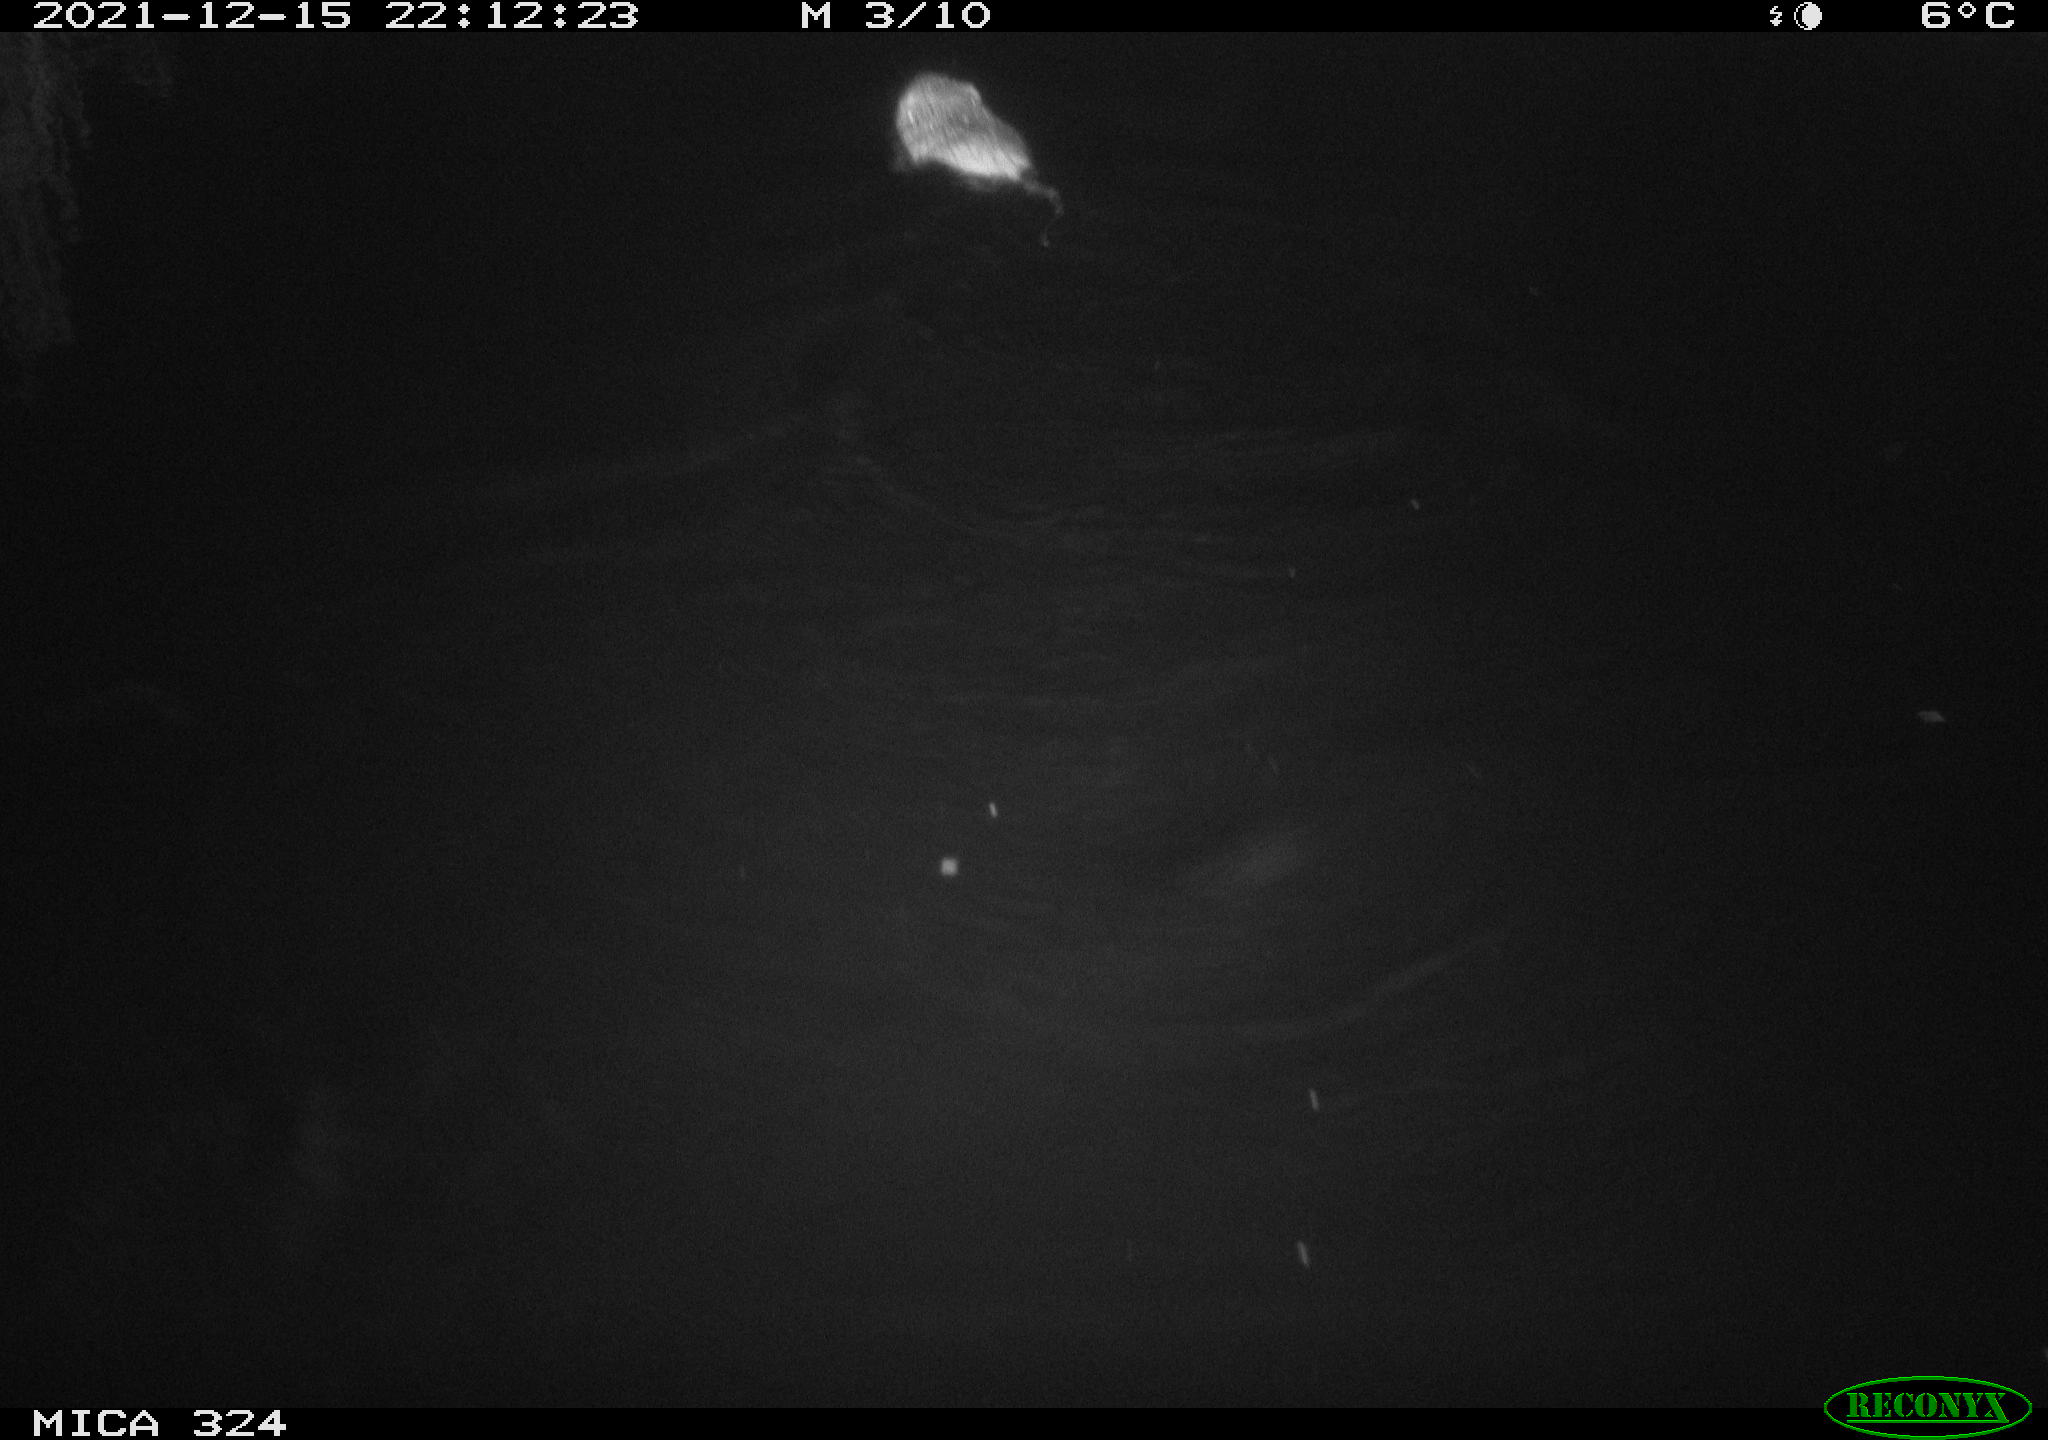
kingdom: Animalia
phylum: Chordata
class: Mammalia
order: Rodentia
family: Cricetidae
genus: Ondatra
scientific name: Ondatra zibethicus
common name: Muskrat
